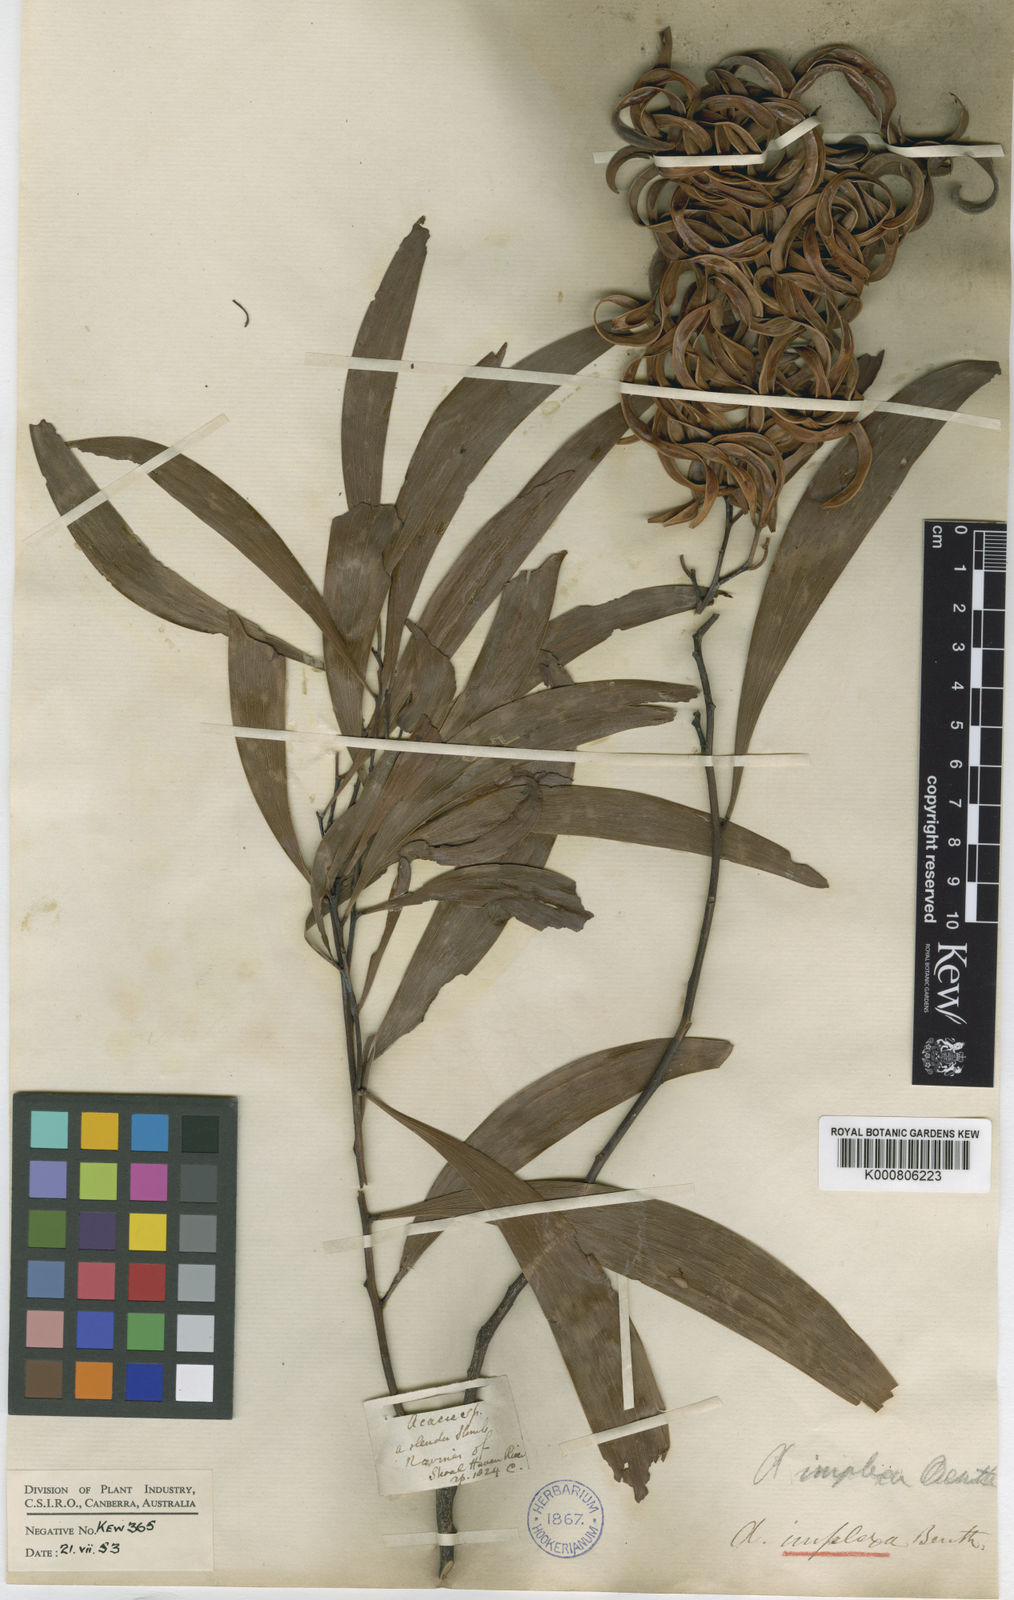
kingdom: Plantae
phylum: Tracheophyta
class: Magnoliopsida
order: Fabales
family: Fabaceae
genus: Acacia
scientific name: Acacia implexa
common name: Black wattle
